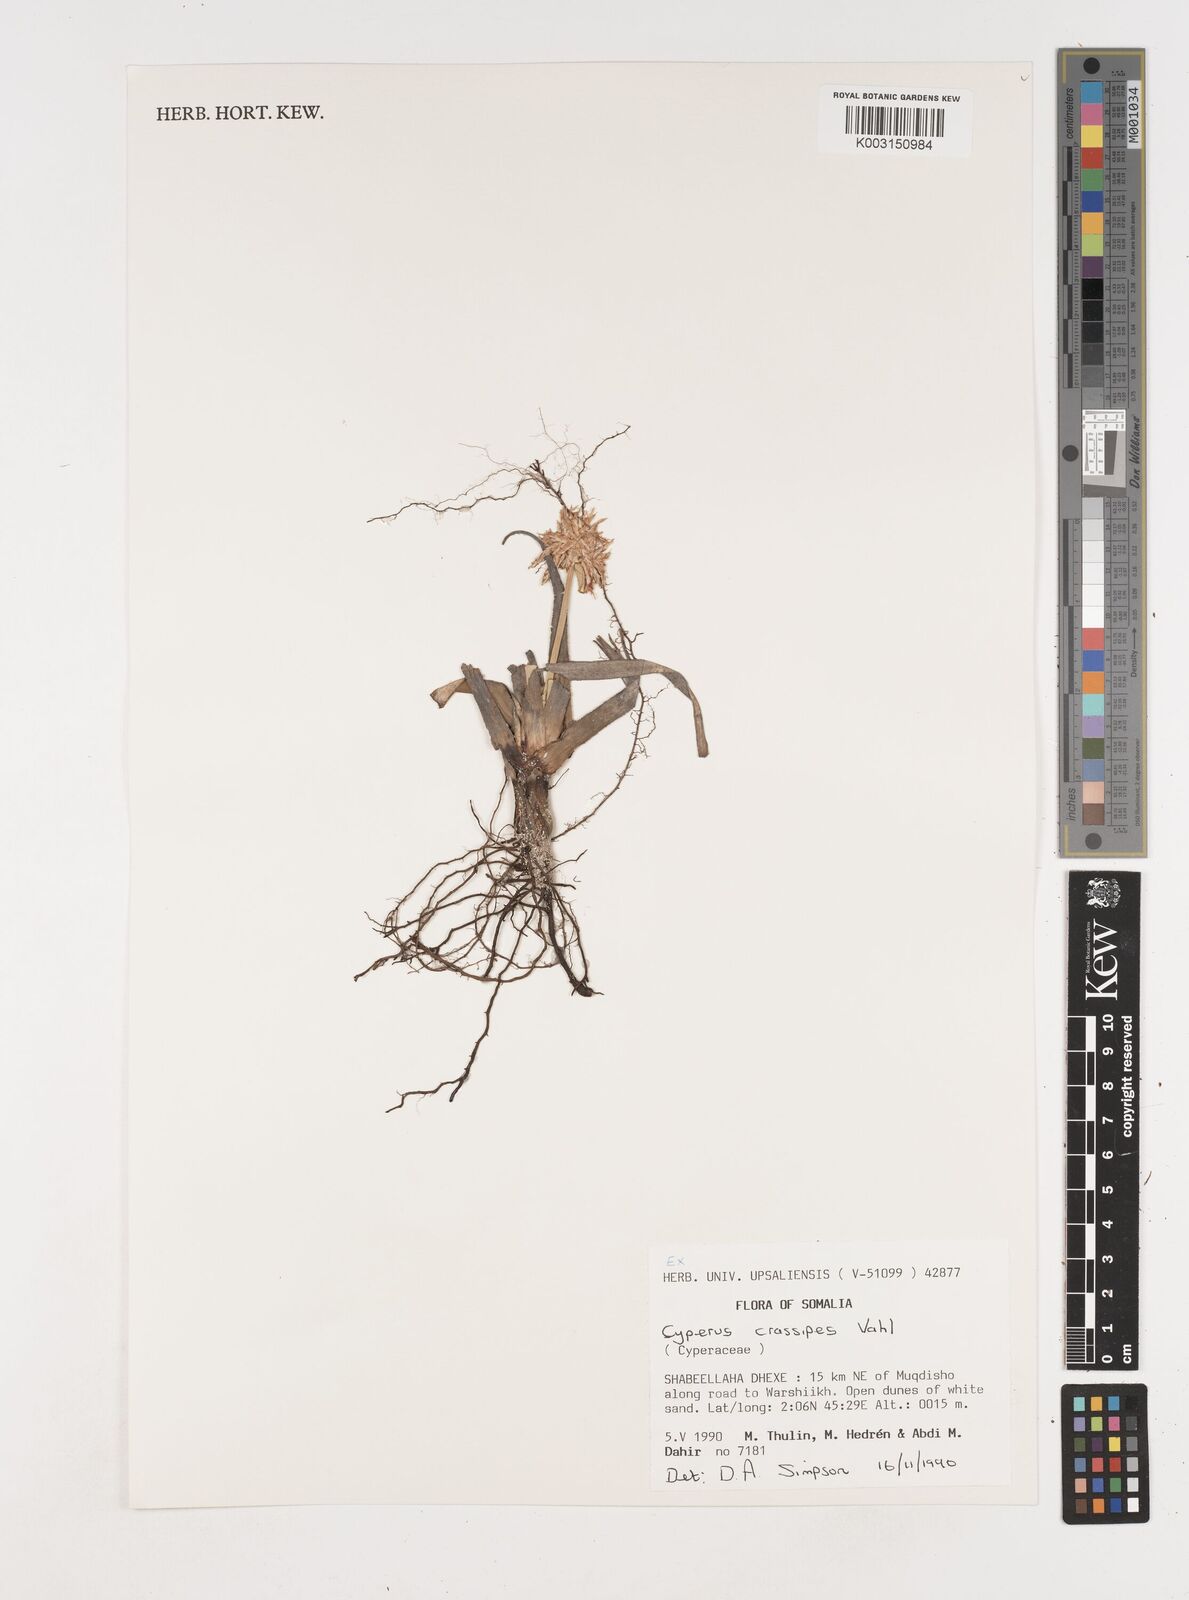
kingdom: Plantae
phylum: Tracheophyta
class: Liliopsida
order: Poales
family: Cyperaceae
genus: Cyperus
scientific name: Cyperus crassipes
